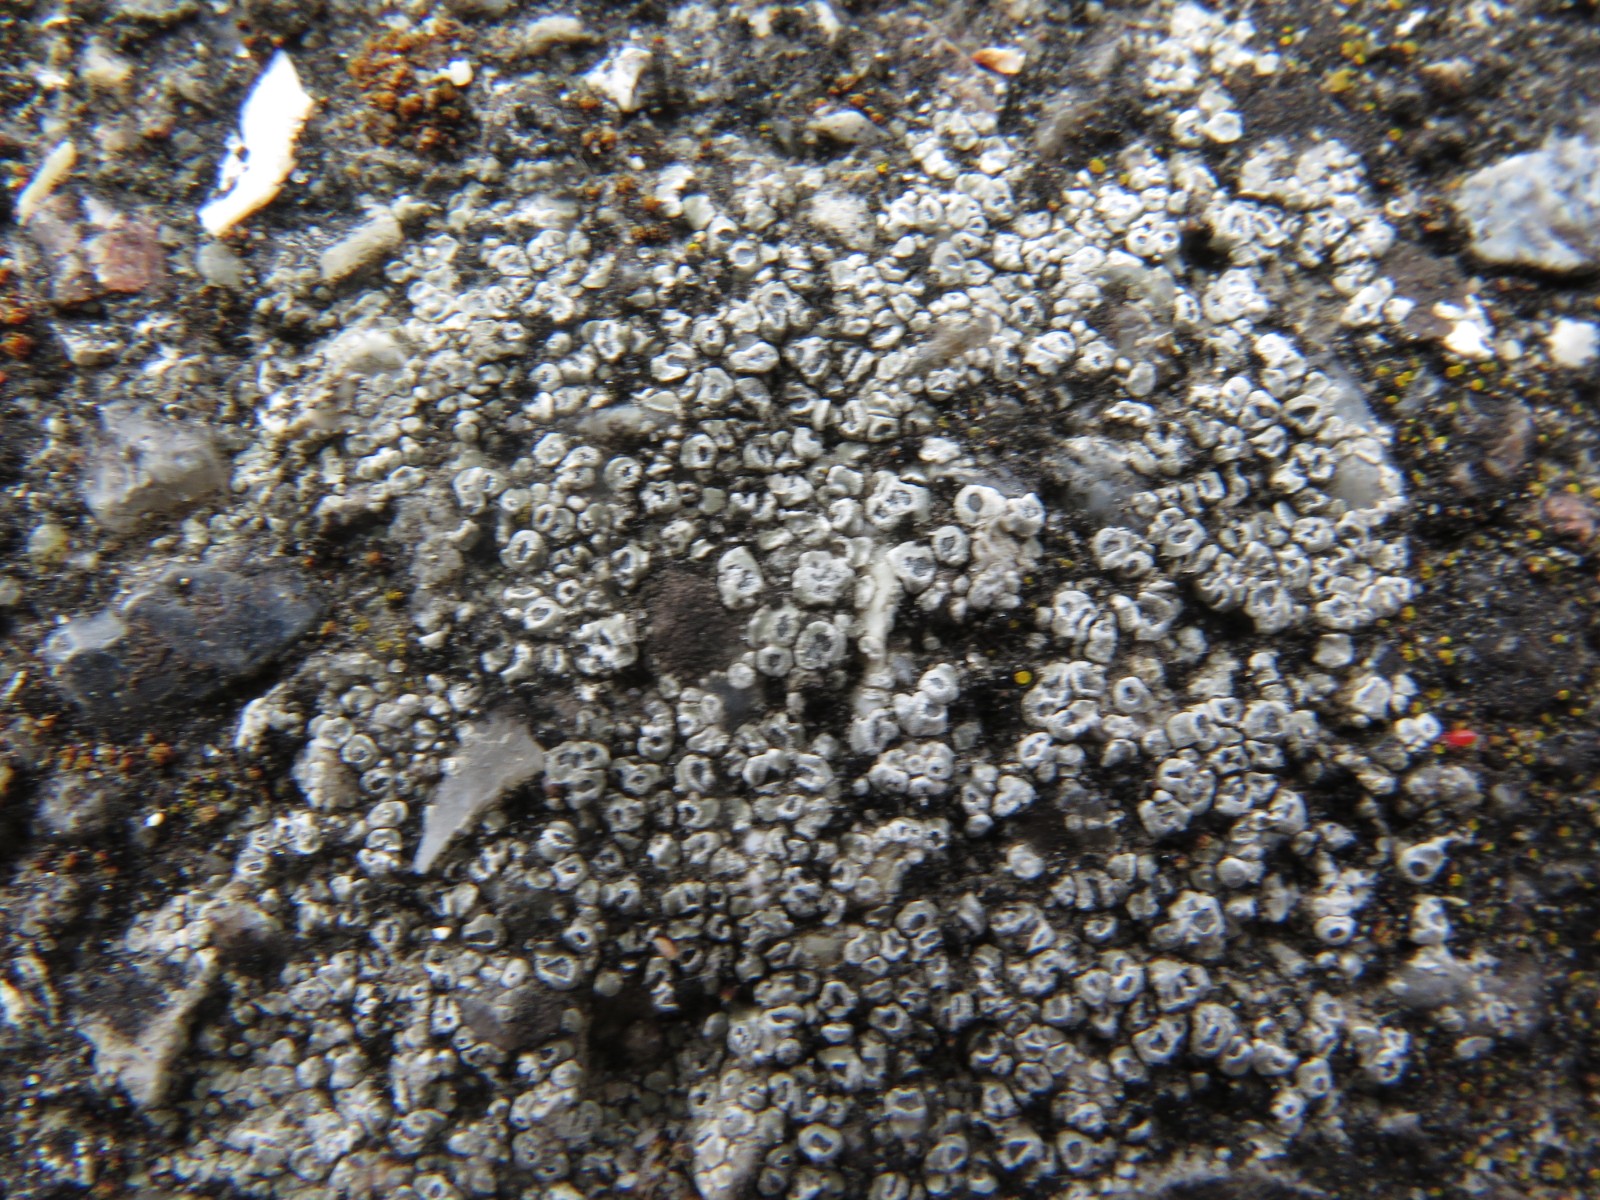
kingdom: Fungi
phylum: Ascomycota
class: Lecanoromycetes
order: Pertusariales
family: Megasporaceae
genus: Circinaria
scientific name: Circinaria contorta
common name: indviklet hulskivelav
